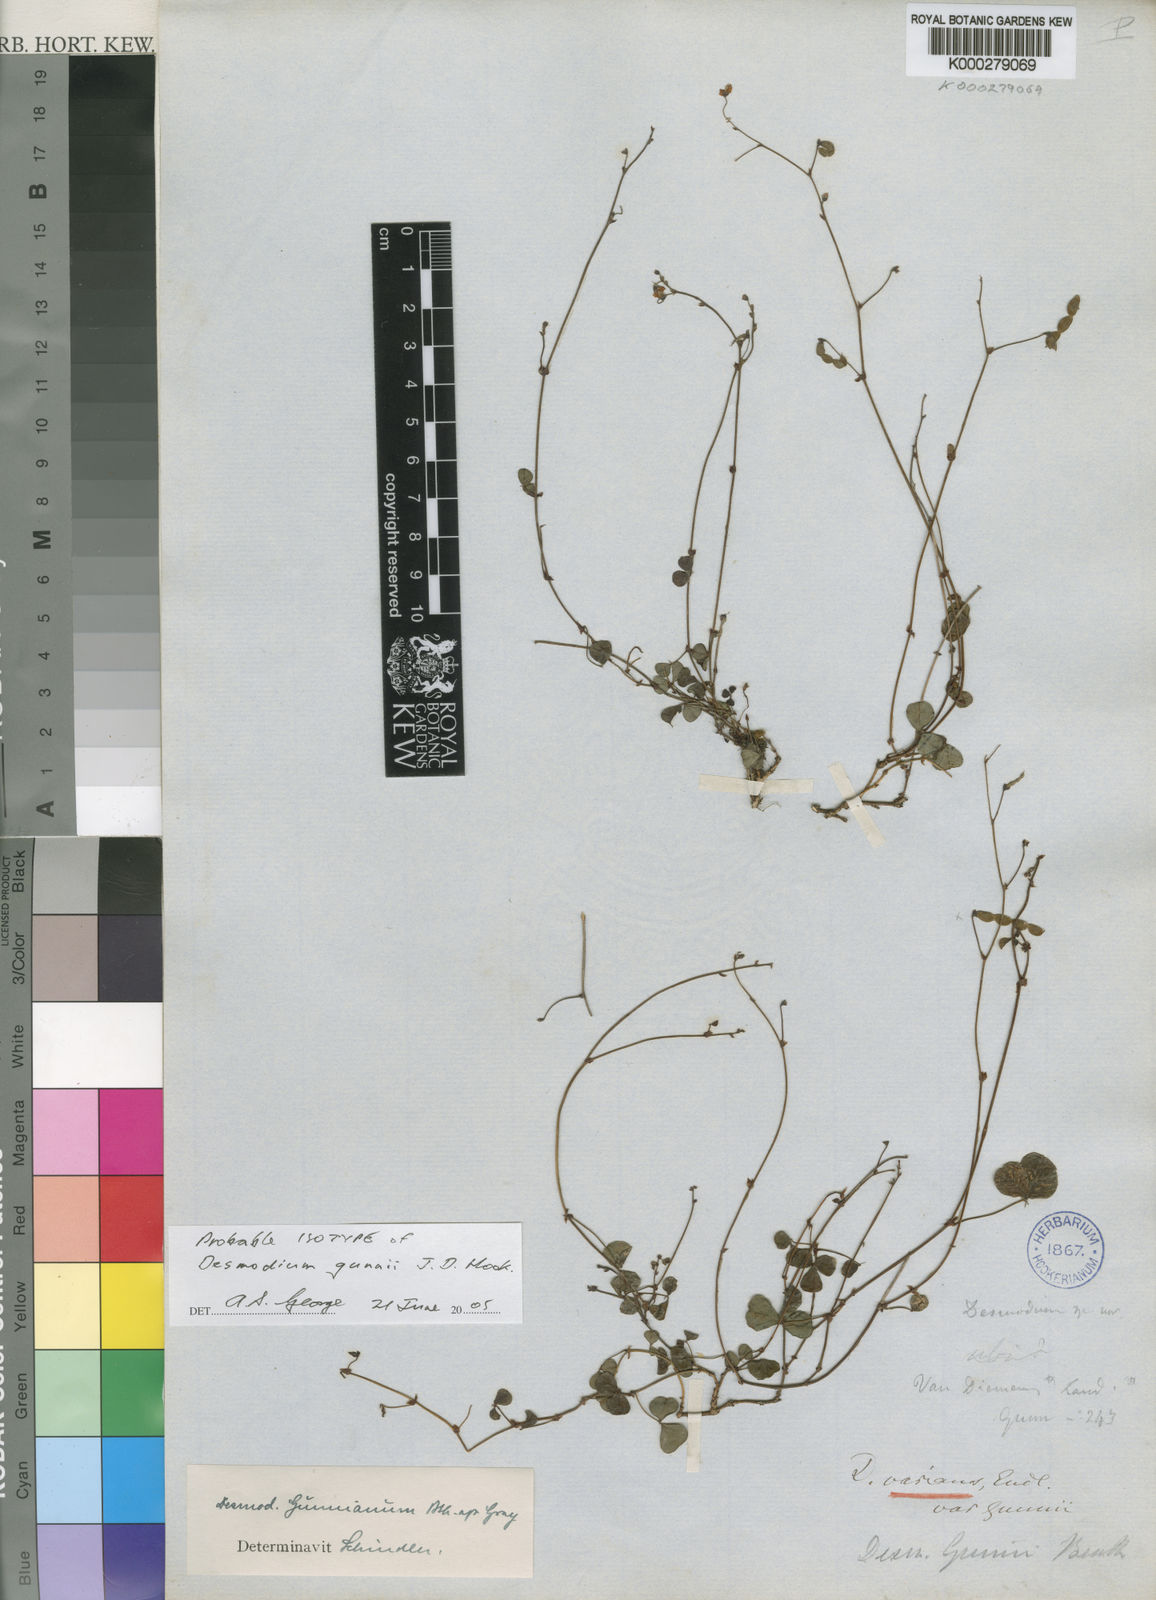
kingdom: Plantae
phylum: Tracheophyta
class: Magnoliopsida
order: Fabales
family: Fabaceae
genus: Pullenia
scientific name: Pullenia gunnii
